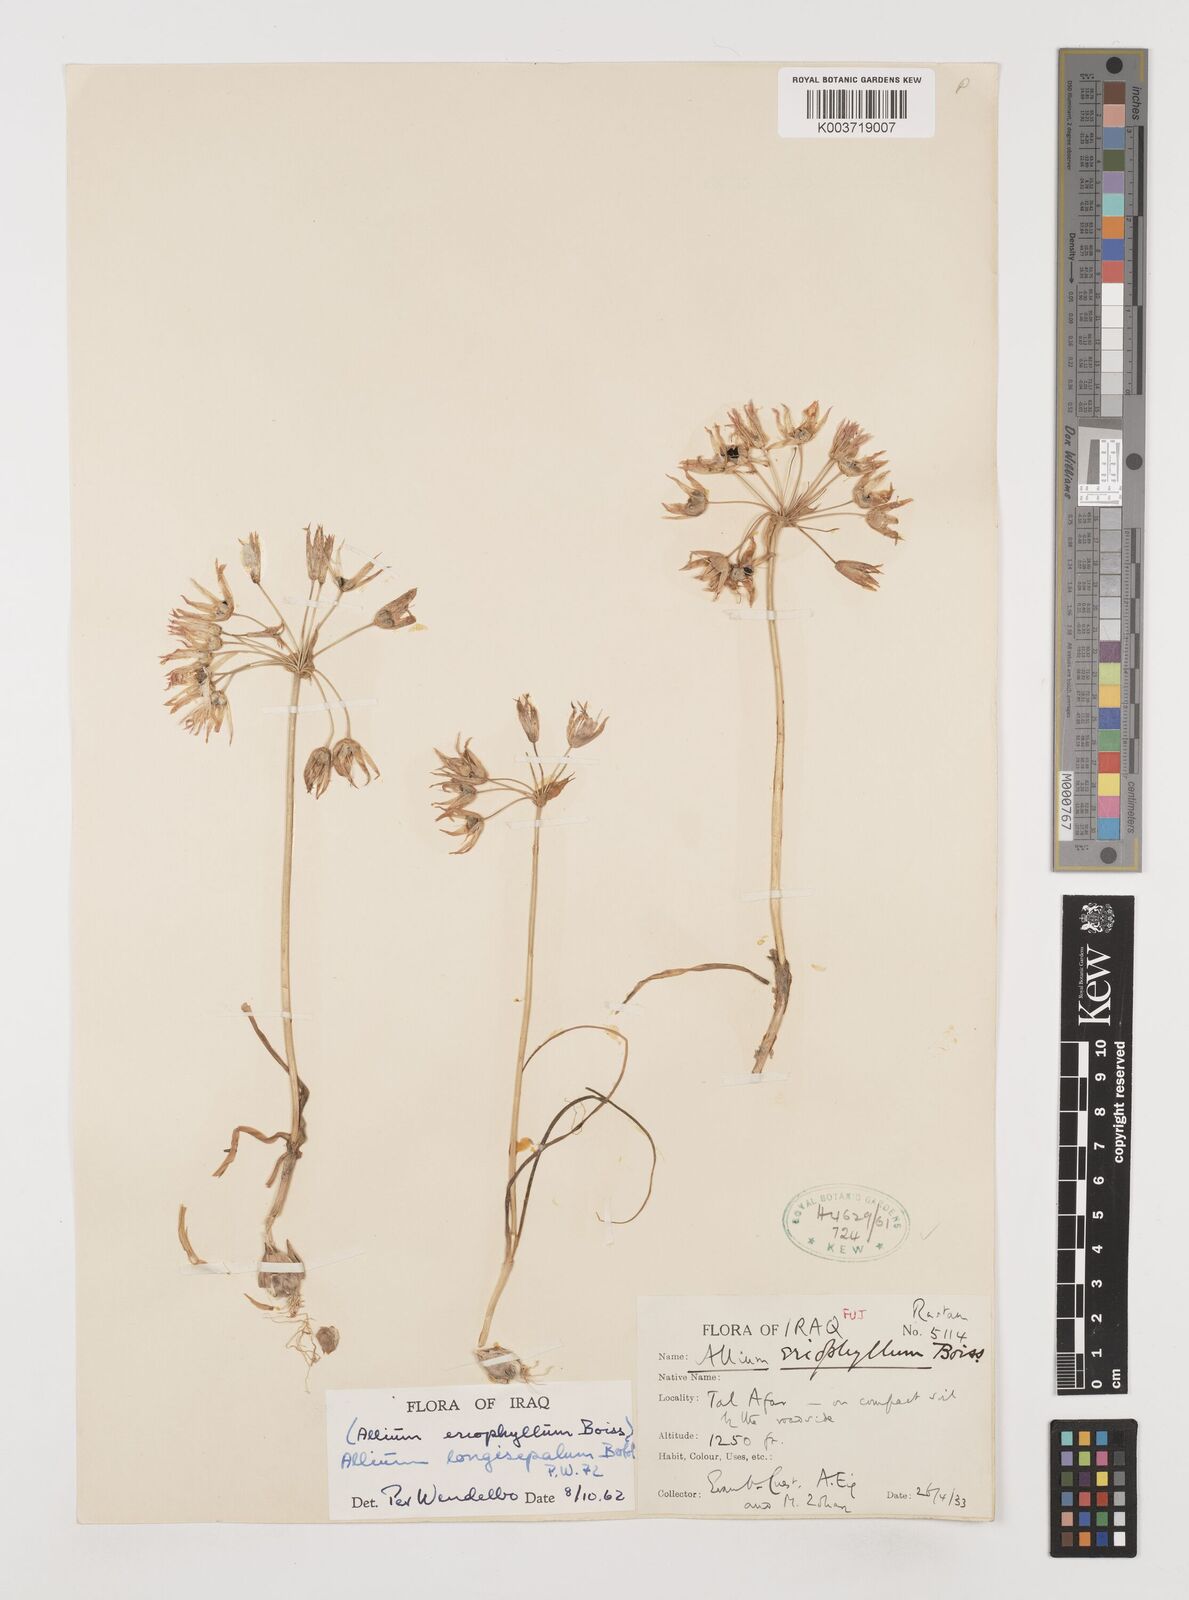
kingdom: Plantae
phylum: Tracheophyta
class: Liliopsida
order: Asparagales
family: Amaryllidaceae
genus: Allium
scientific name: Allium longisepalum
